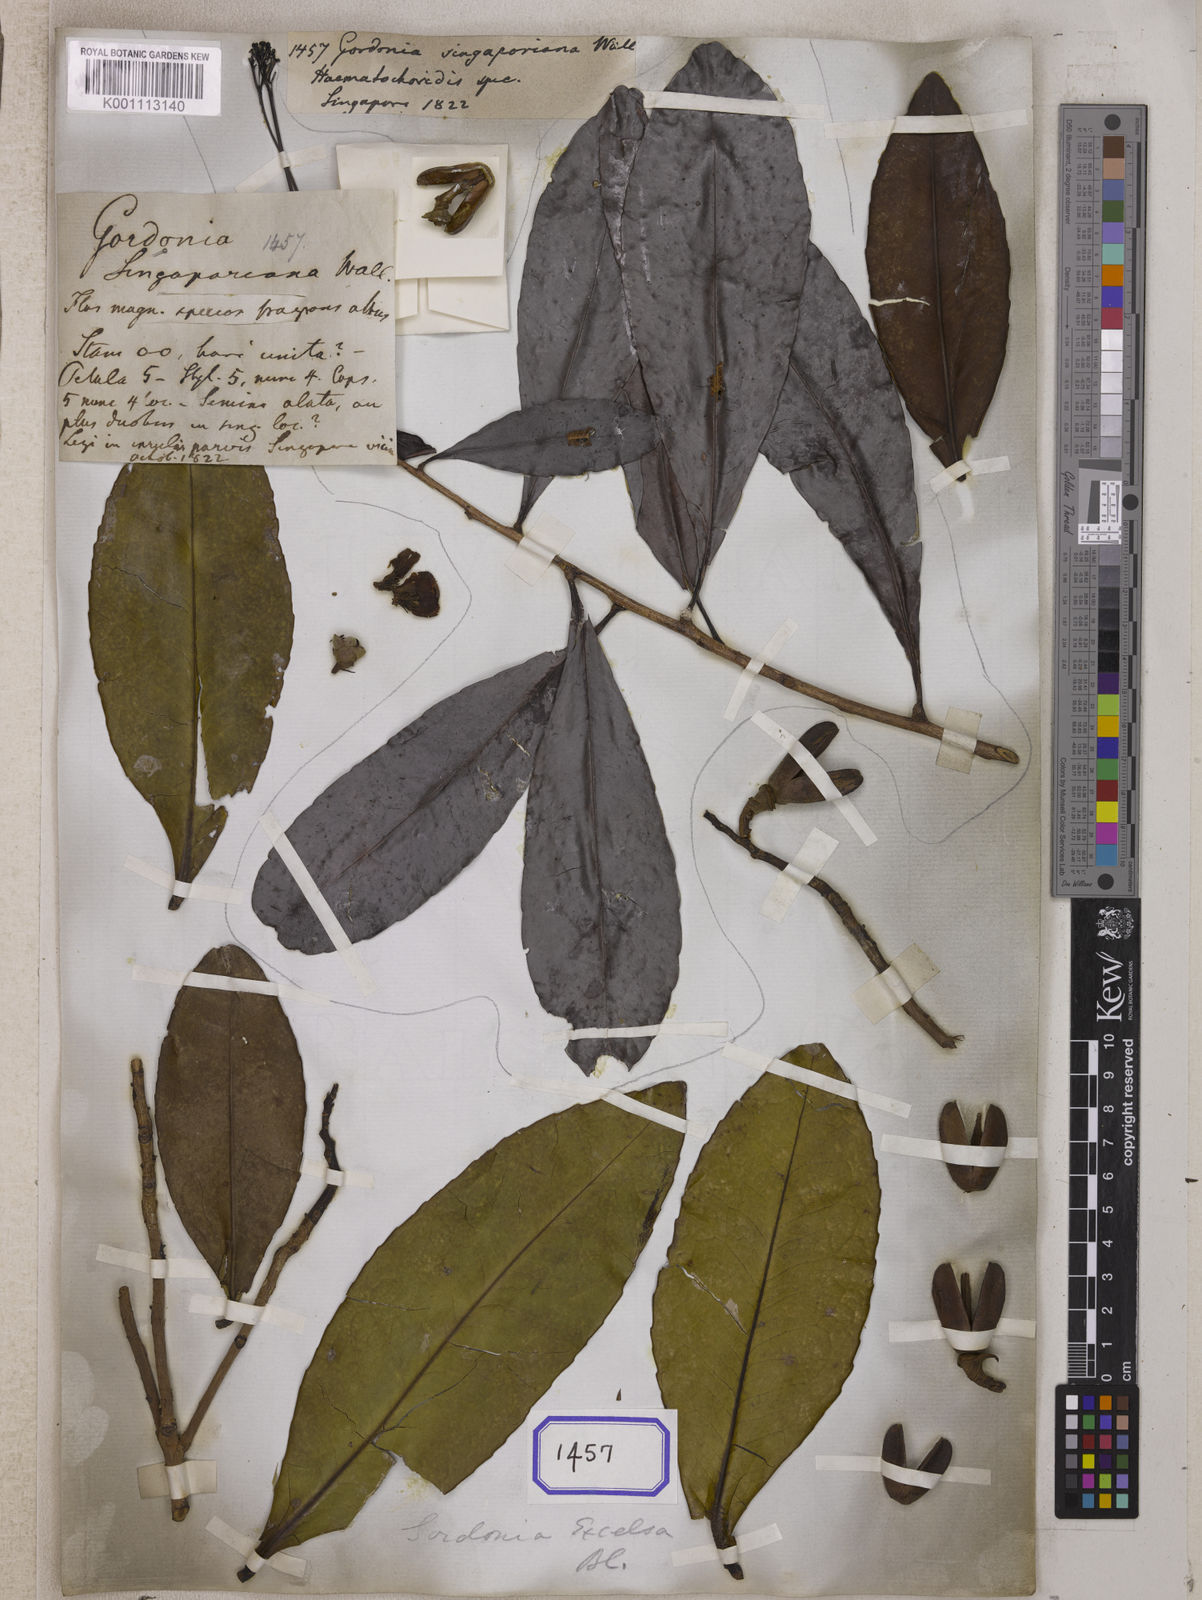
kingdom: Plantae
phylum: Tracheophyta
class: Magnoliopsida
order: Ericales
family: Theaceae
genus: Gordonia
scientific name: Gordonia
